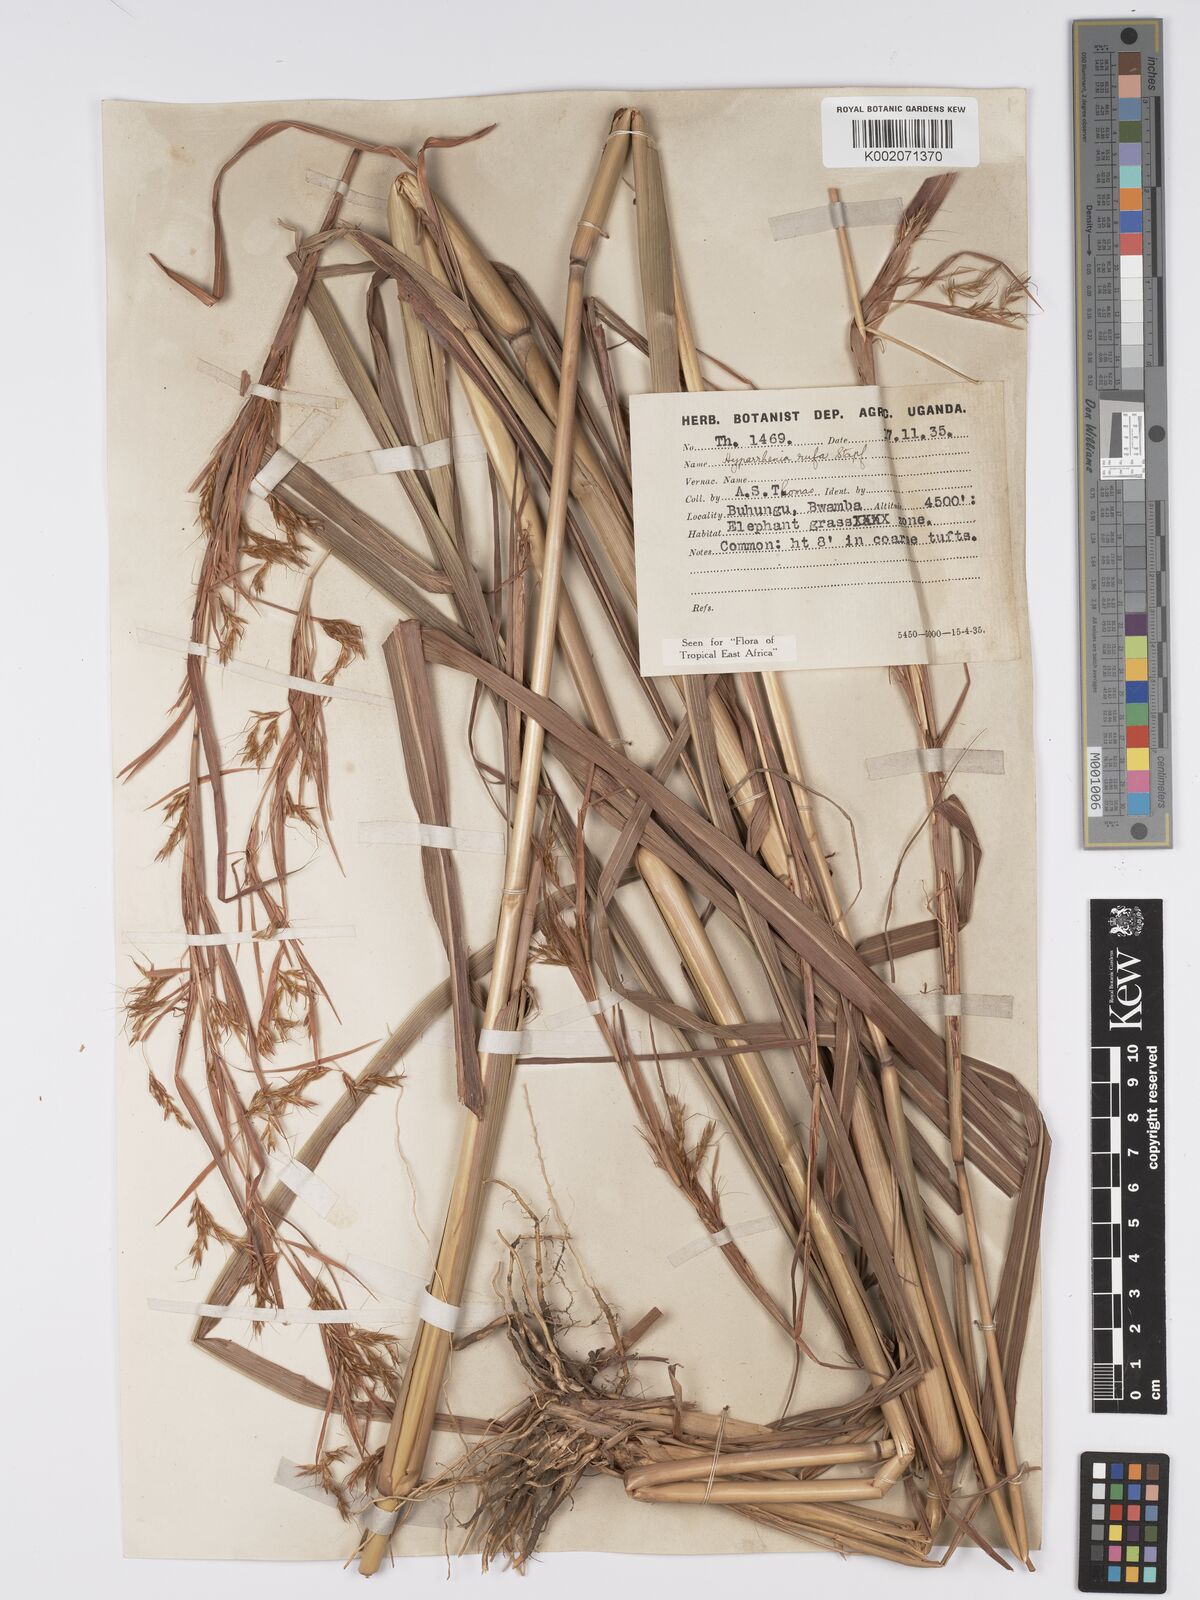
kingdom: Plantae
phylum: Tracheophyta
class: Liliopsida
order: Poales
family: Poaceae
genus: Hyparrhenia
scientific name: Hyparrhenia rufa
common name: Jaraguagrass
